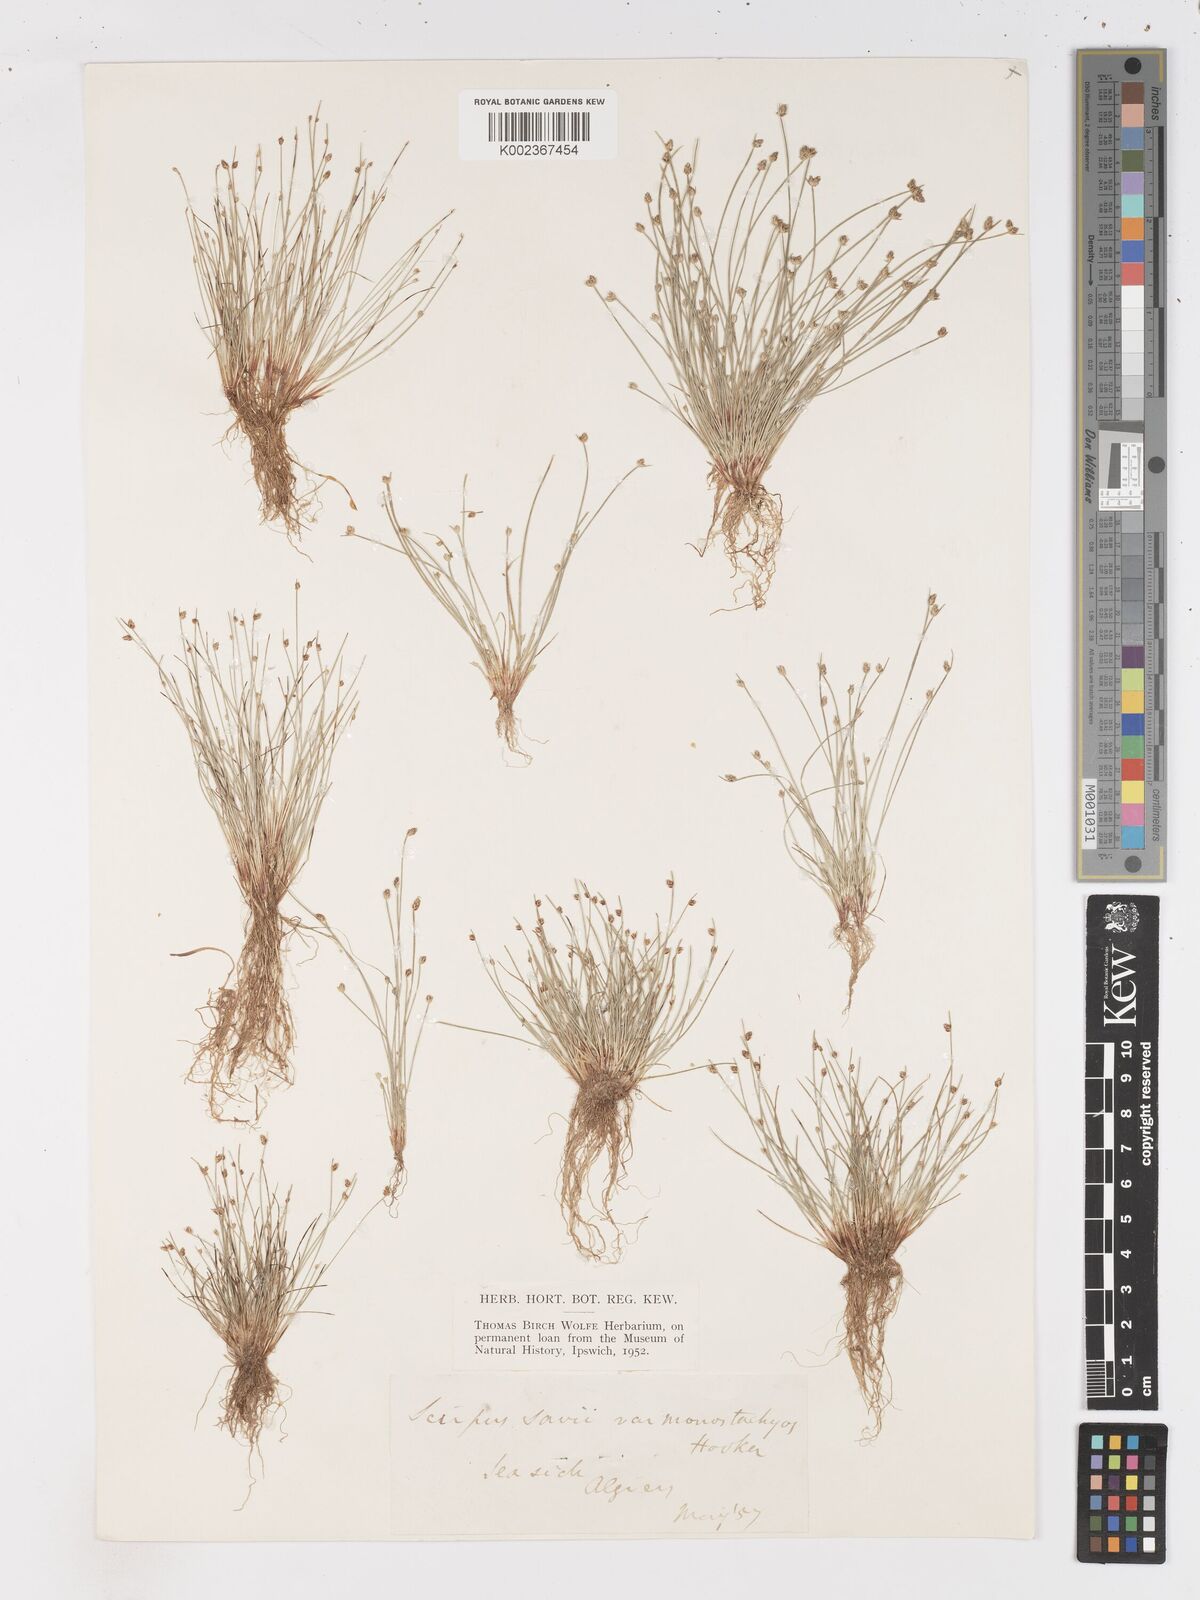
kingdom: Plantae
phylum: Tracheophyta
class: Liliopsida
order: Poales
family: Cyperaceae
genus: Isolepis
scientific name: Isolepis cernua
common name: Slender club-rush
